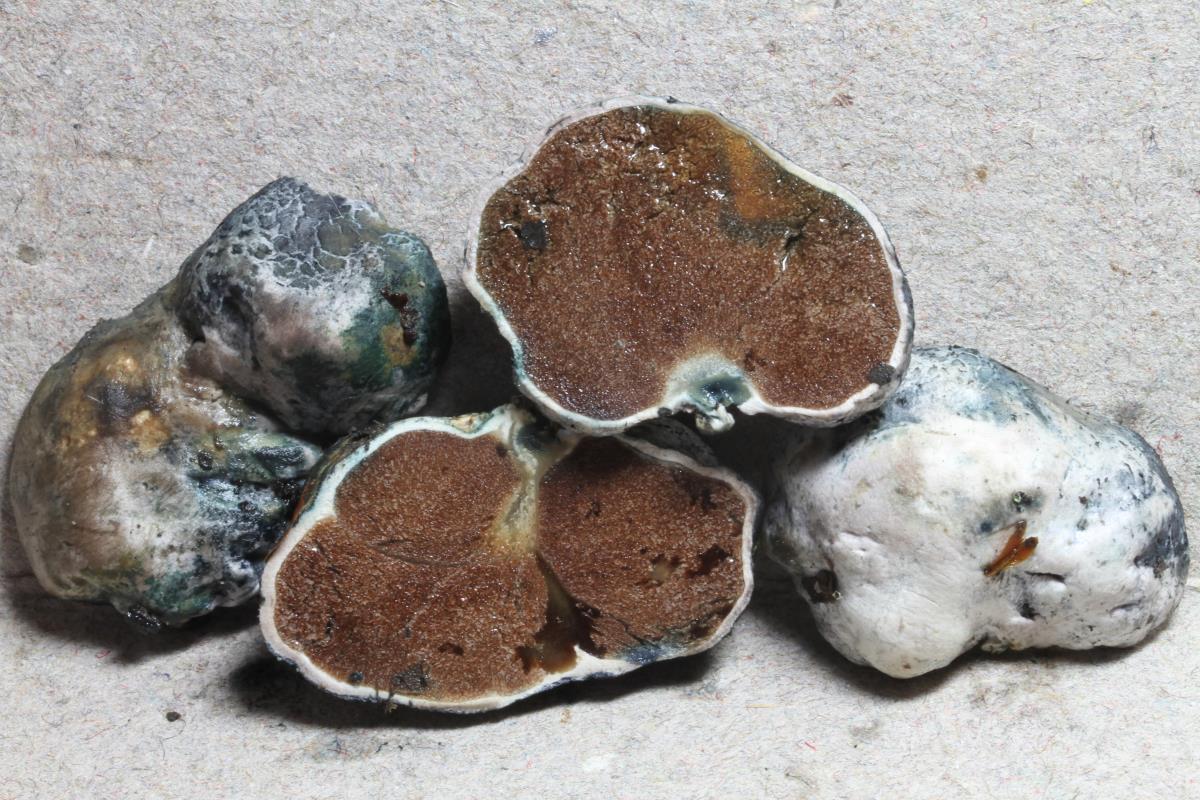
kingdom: Fungi
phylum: Basidiomycota
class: Agaricomycetes
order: Boletales
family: Boletaceae
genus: Leccinum
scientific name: Leccinum pachyderme
